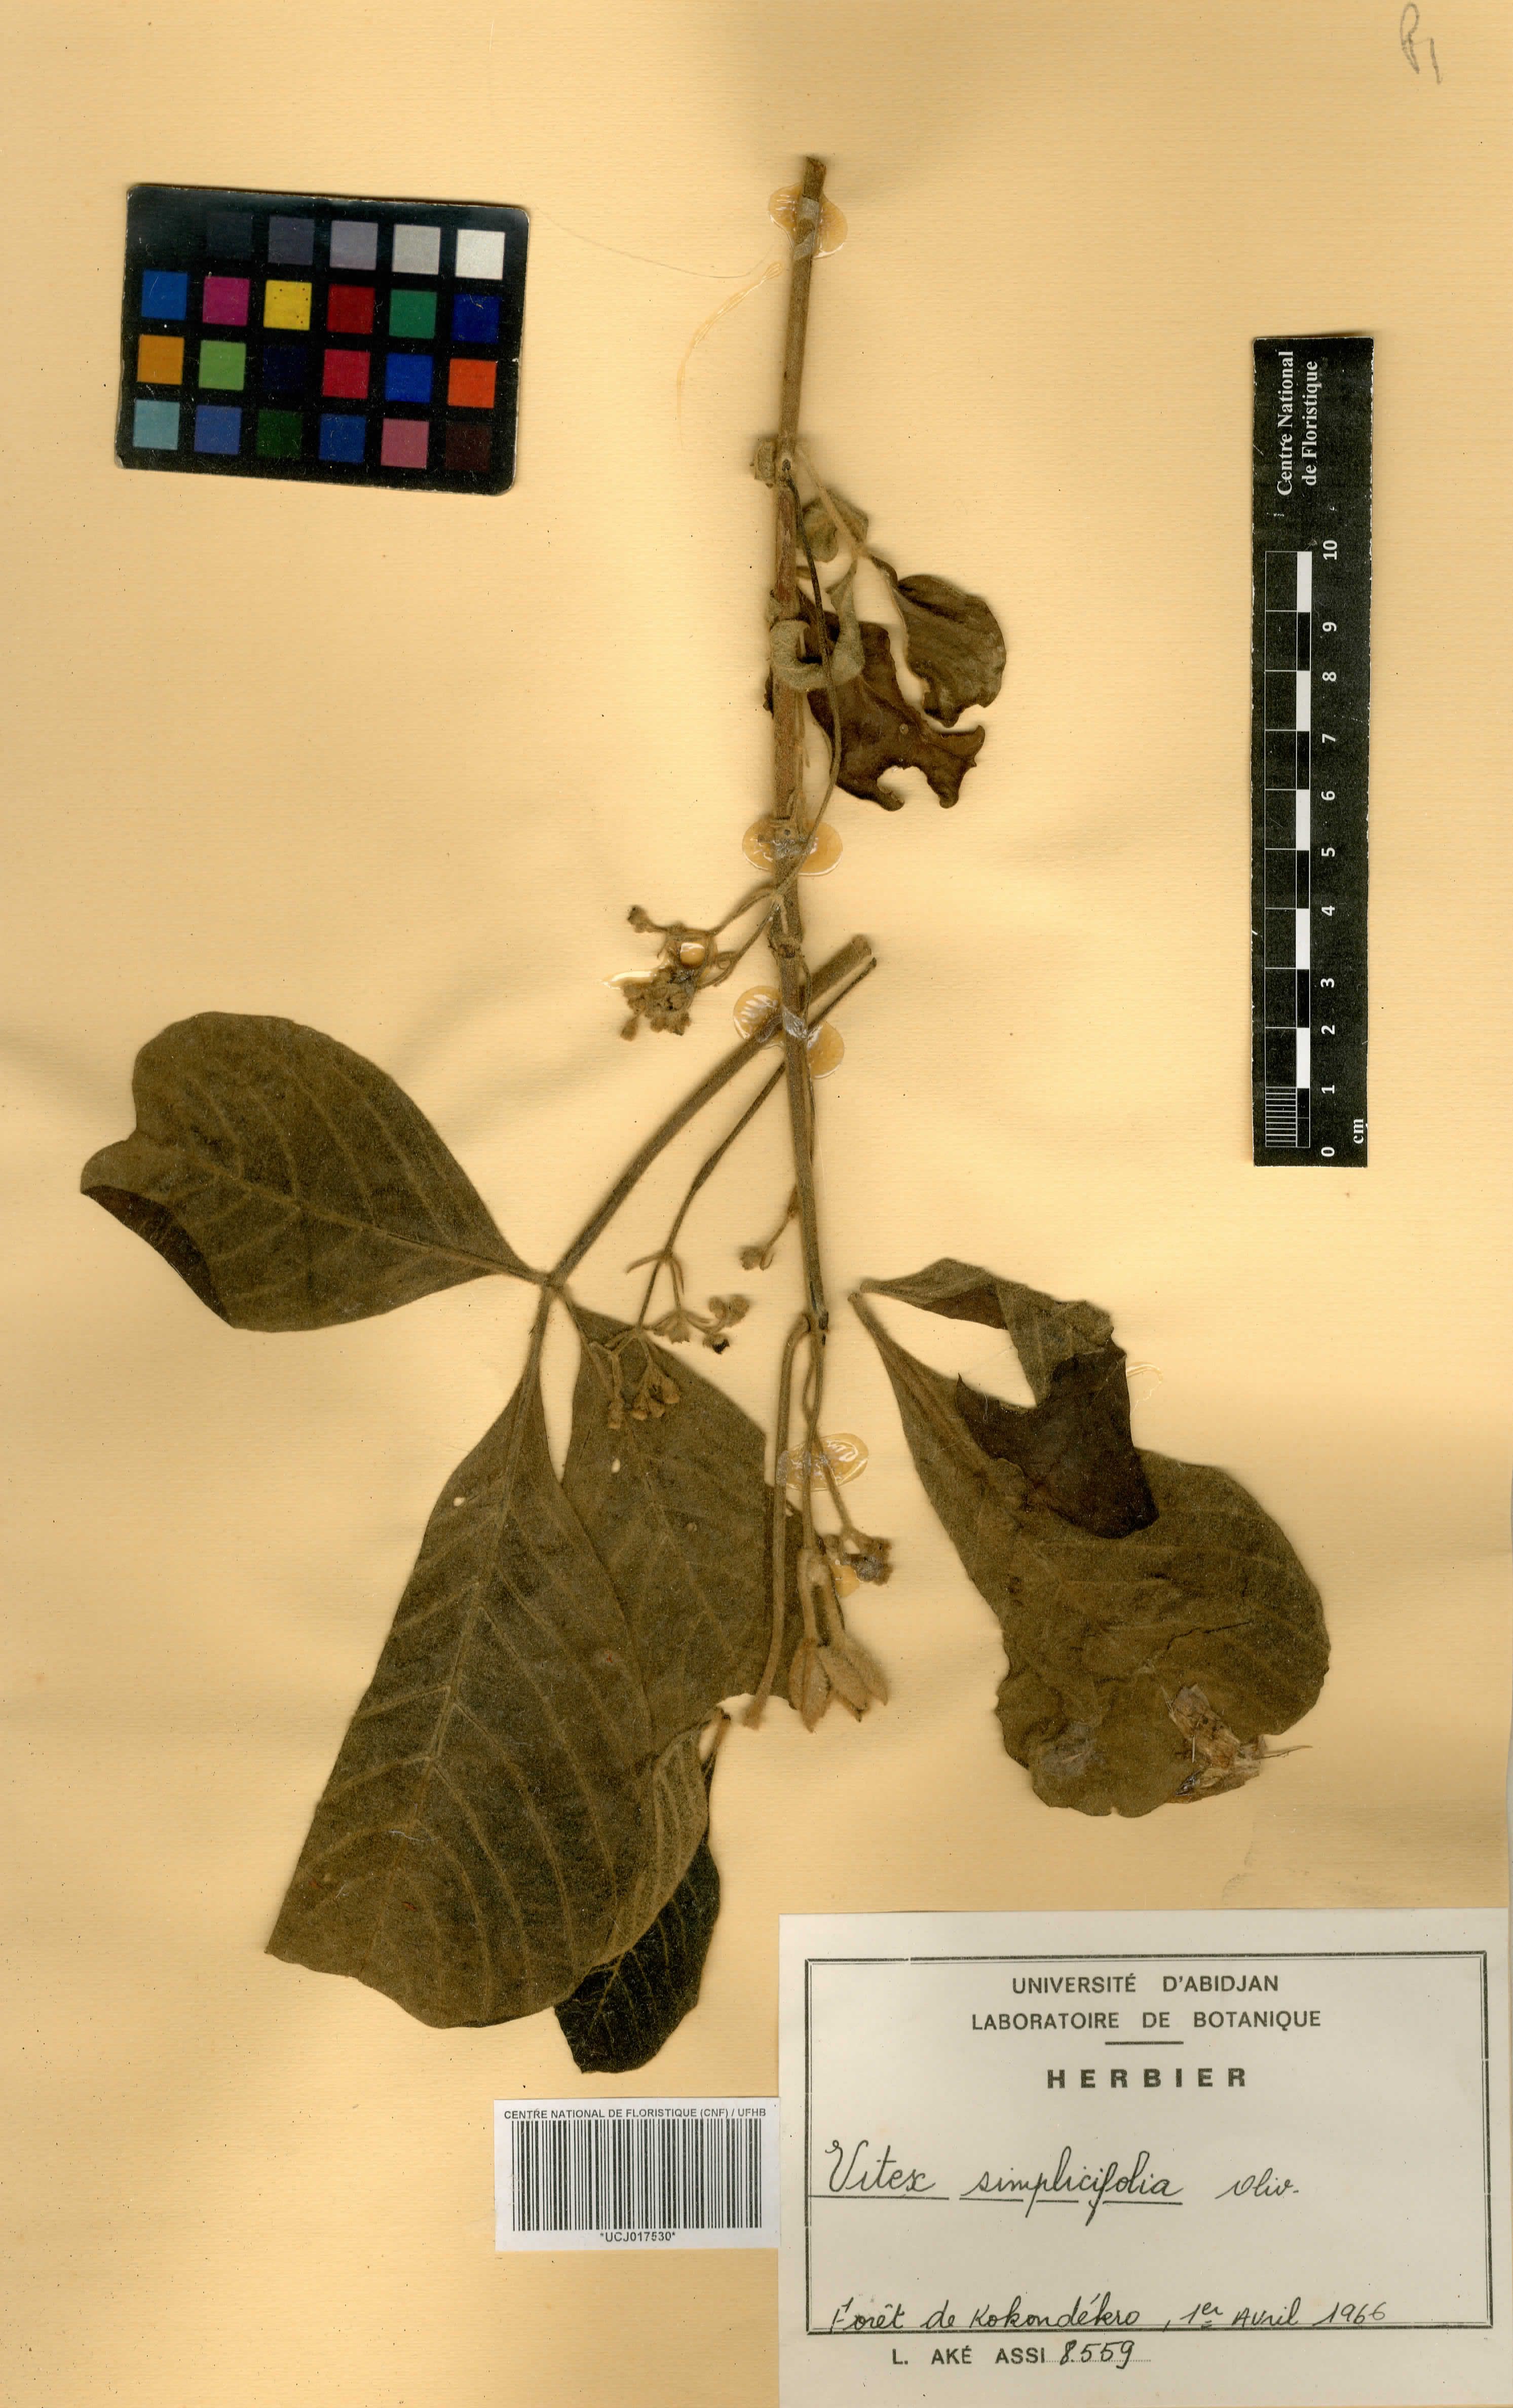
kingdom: Plantae
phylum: Tracheophyta
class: Magnoliopsida
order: Lamiales
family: Lamiaceae
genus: Vitex
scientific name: Vitex madiensis
